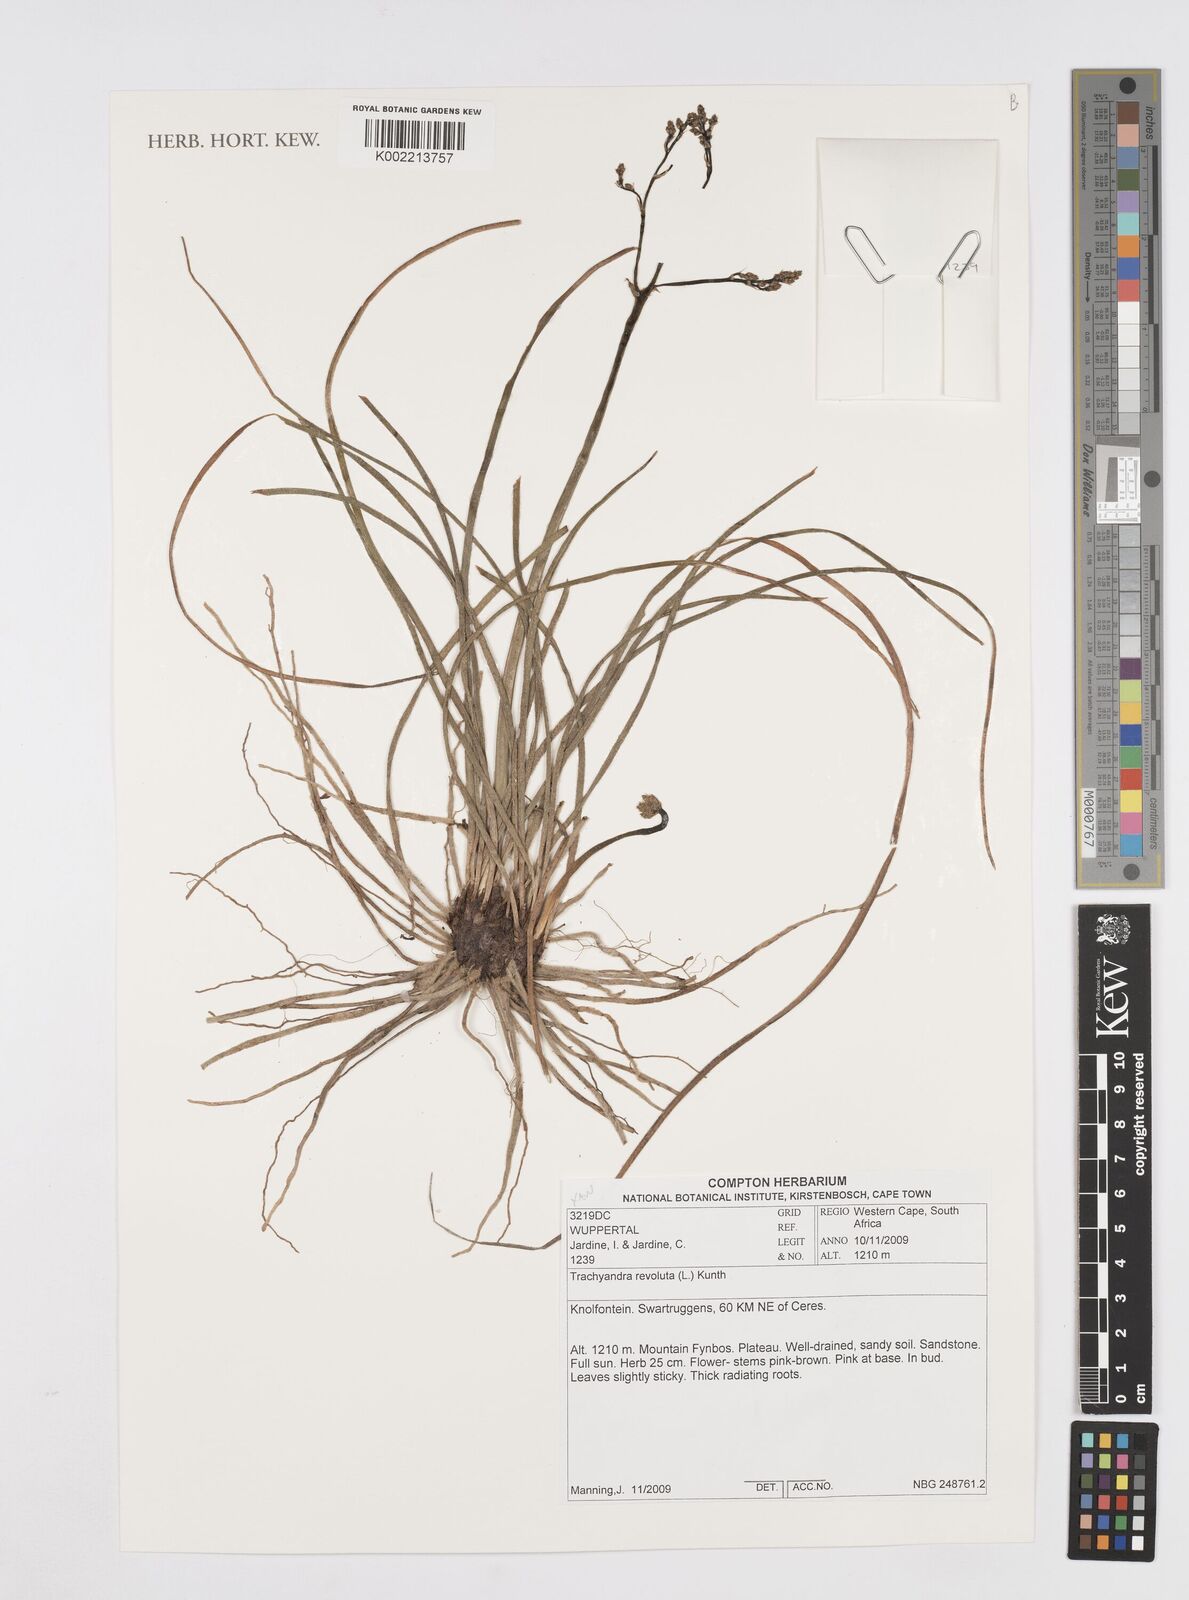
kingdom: Plantae
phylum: Tracheophyta
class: Liliopsida
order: Asparagales
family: Asphodelaceae
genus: Trachyandra
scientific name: Trachyandra revoluta
